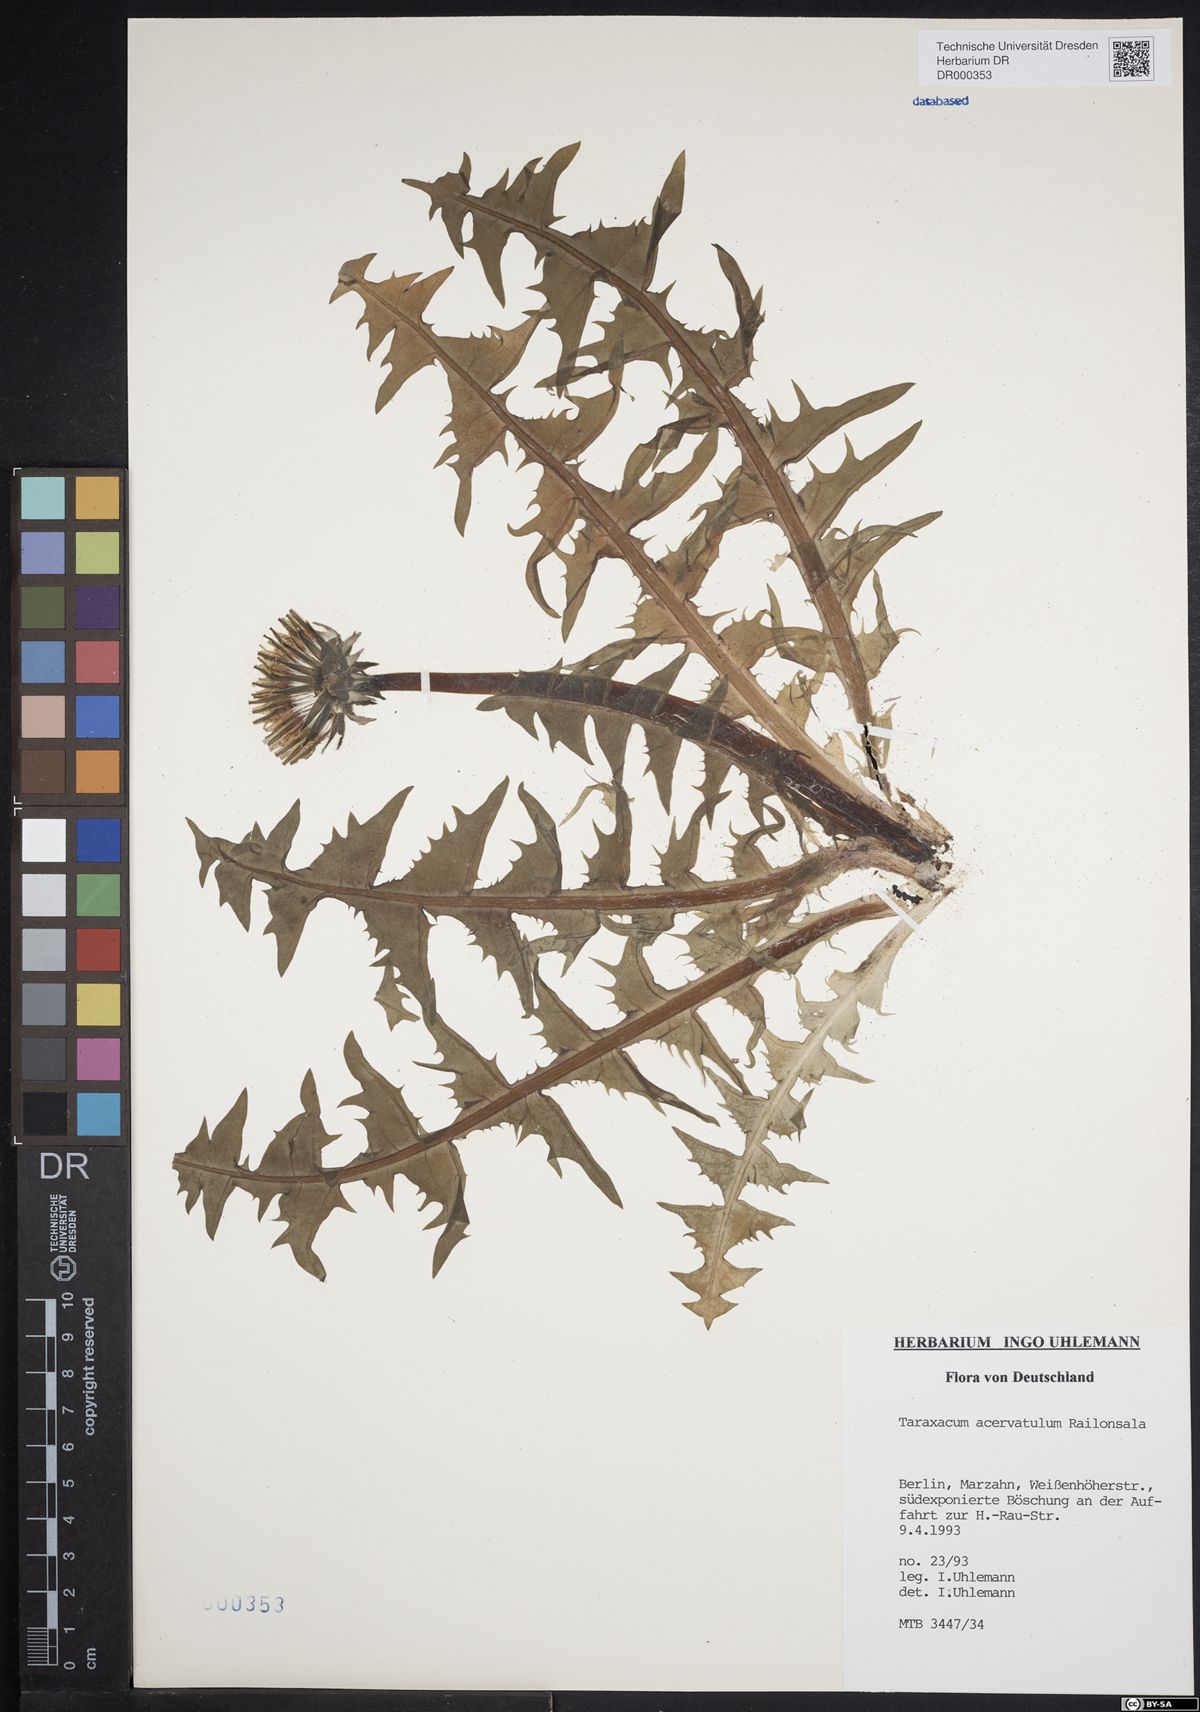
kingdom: Plantae
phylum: Tracheophyta
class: Magnoliopsida
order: Asterales
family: Asteraceae
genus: Taraxacum
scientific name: Taraxacum acervatulum
